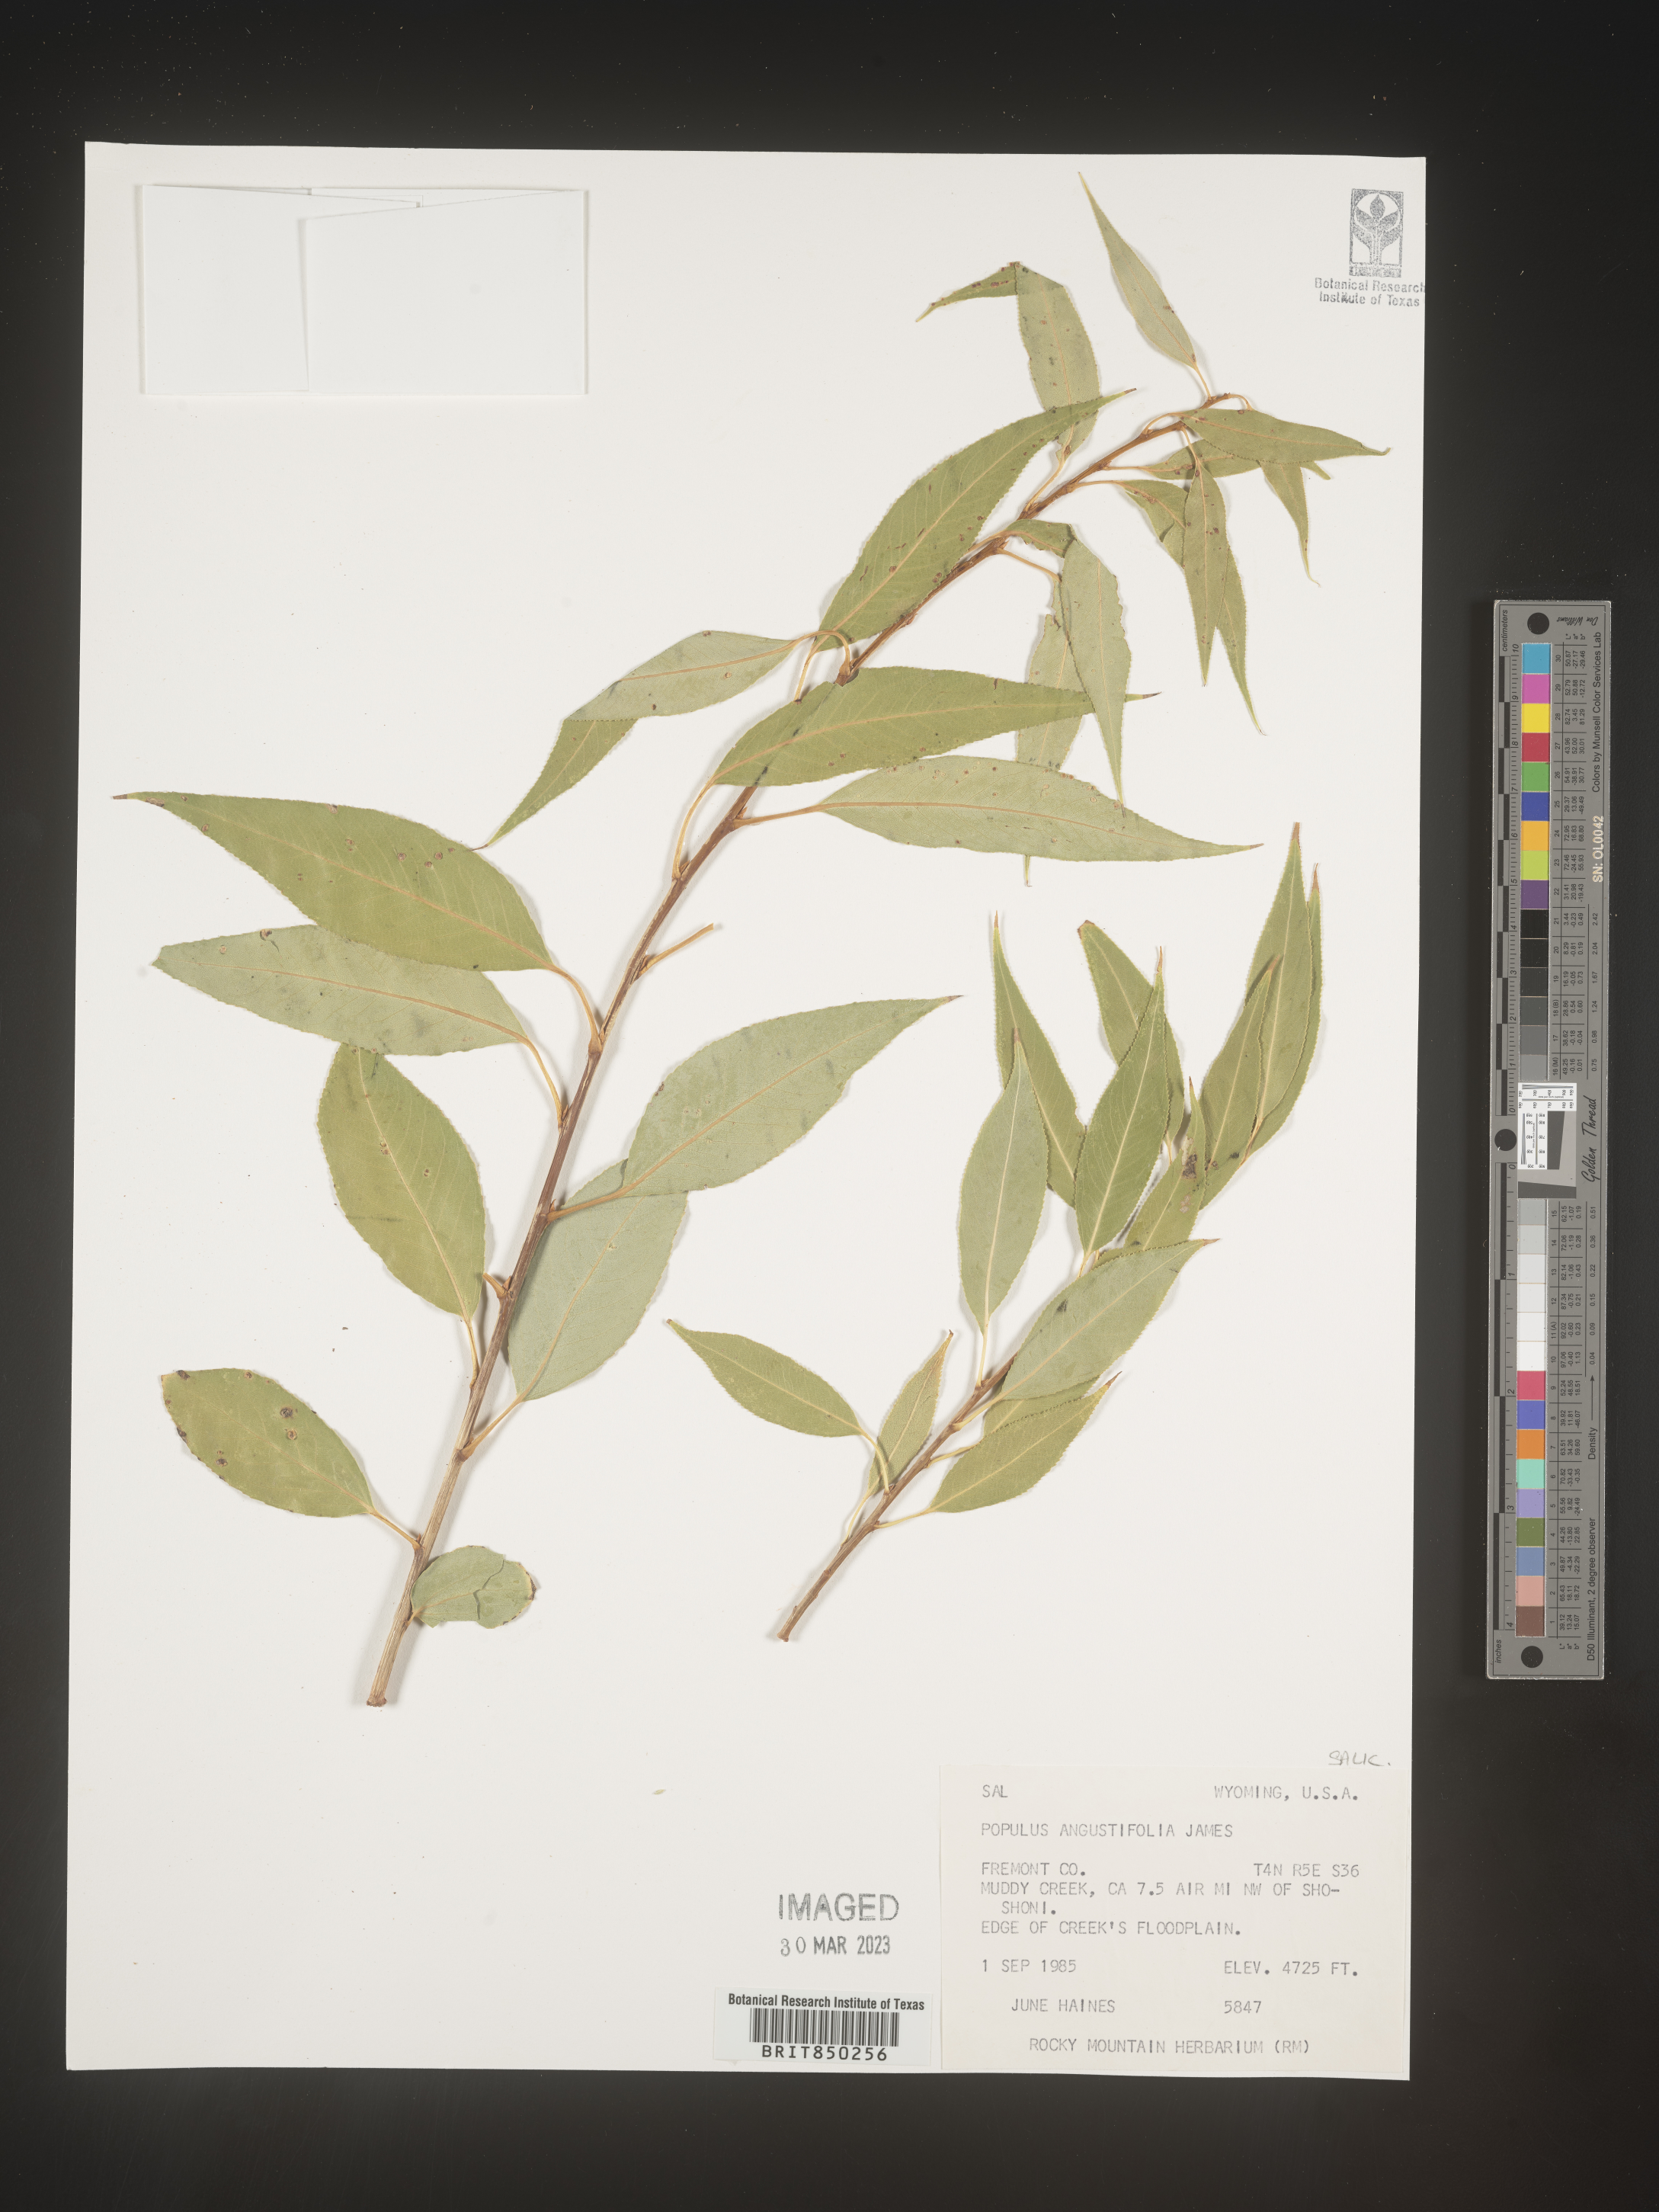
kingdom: Plantae
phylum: Tracheophyta
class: Magnoliopsida
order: Malpighiales
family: Salicaceae
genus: Populus
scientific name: Populus angustifolia
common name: Willow cottonwood
